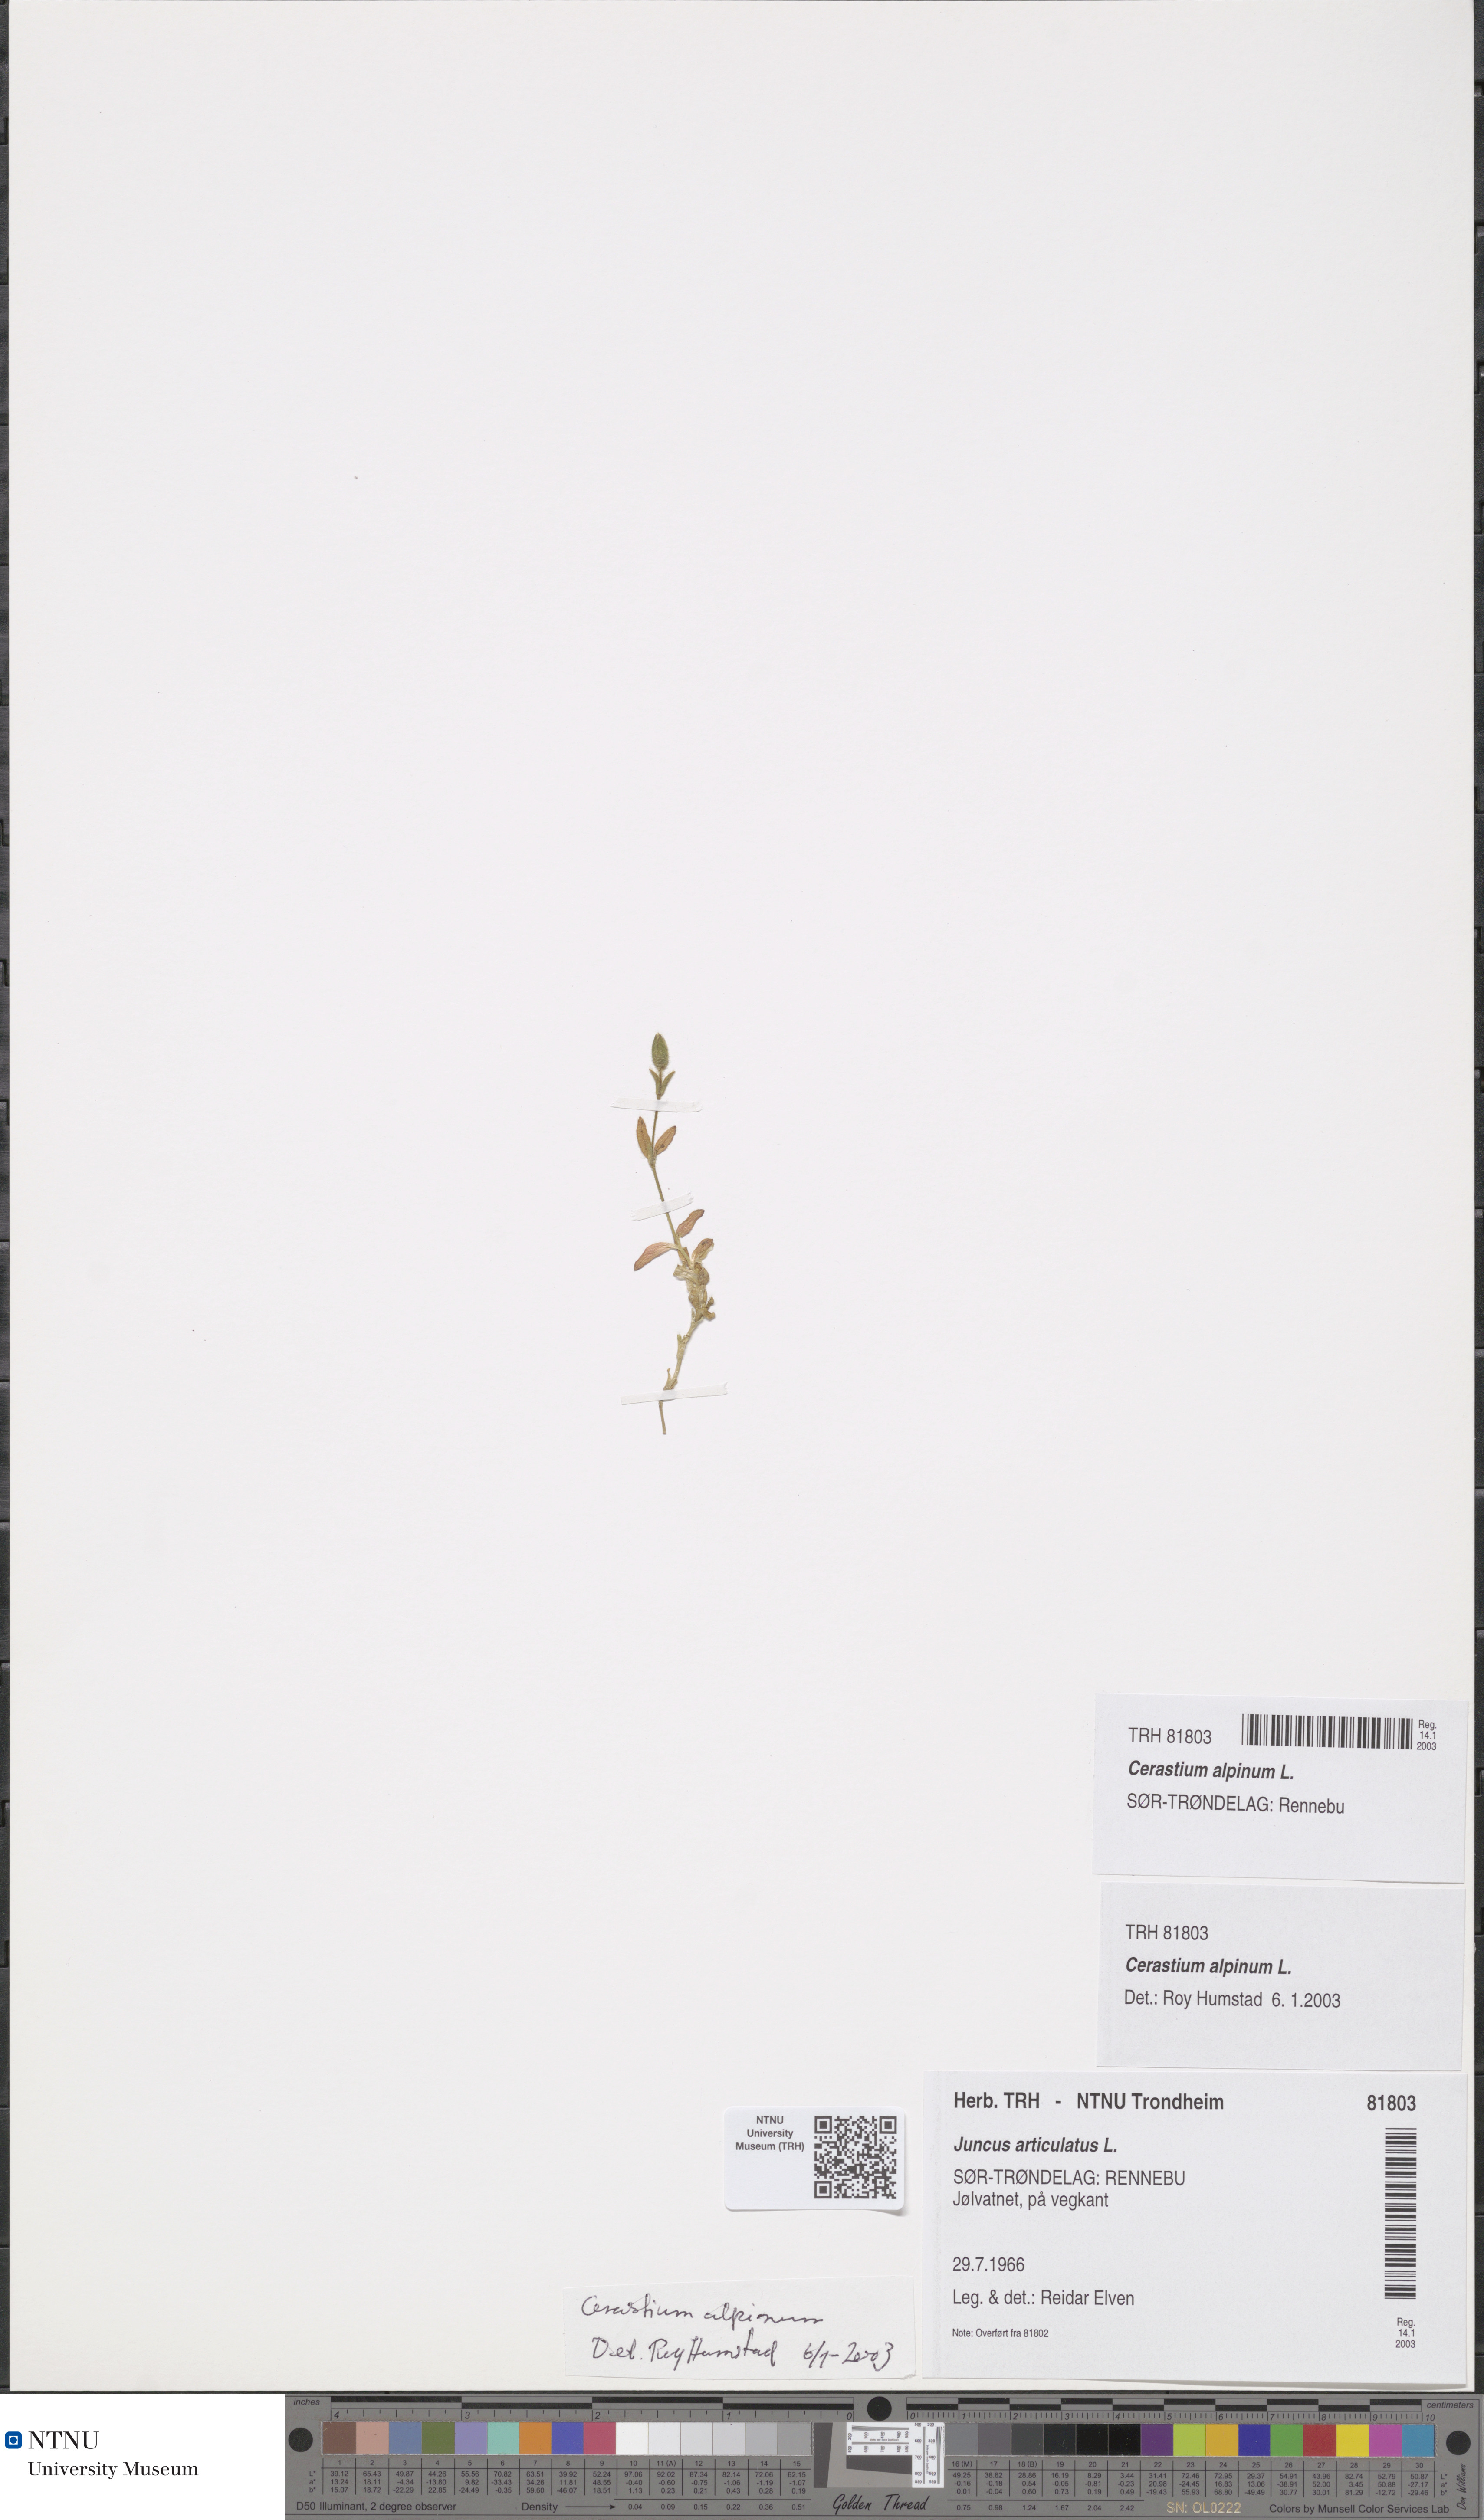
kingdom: Plantae
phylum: Tracheophyta
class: Magnoliopsida
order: Caryophyllales
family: Caryophyllaceae
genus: Cerastium
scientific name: Cerastium alpinum
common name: Alpine mouse-ear
